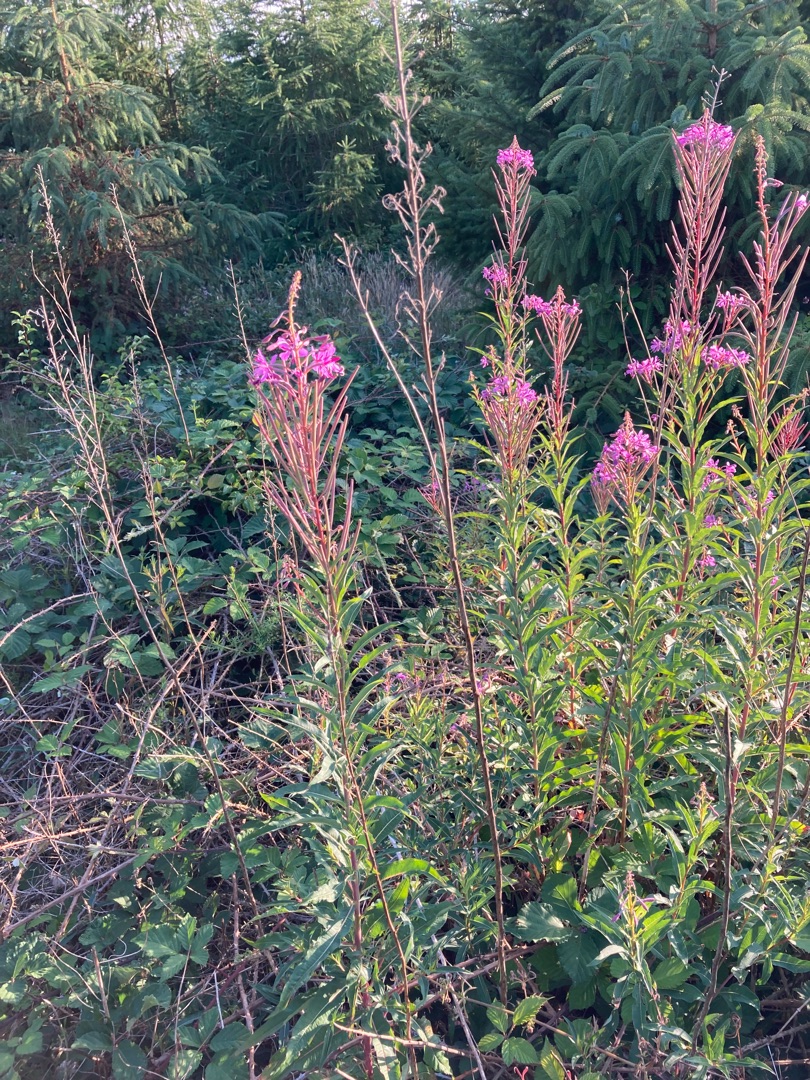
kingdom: Plantae
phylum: Tracheophyta
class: Magnoliopsida
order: Myrtales
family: Onagraceae
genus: Chamaenerion
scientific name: Chamaenerion angustifolium
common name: Gederams
